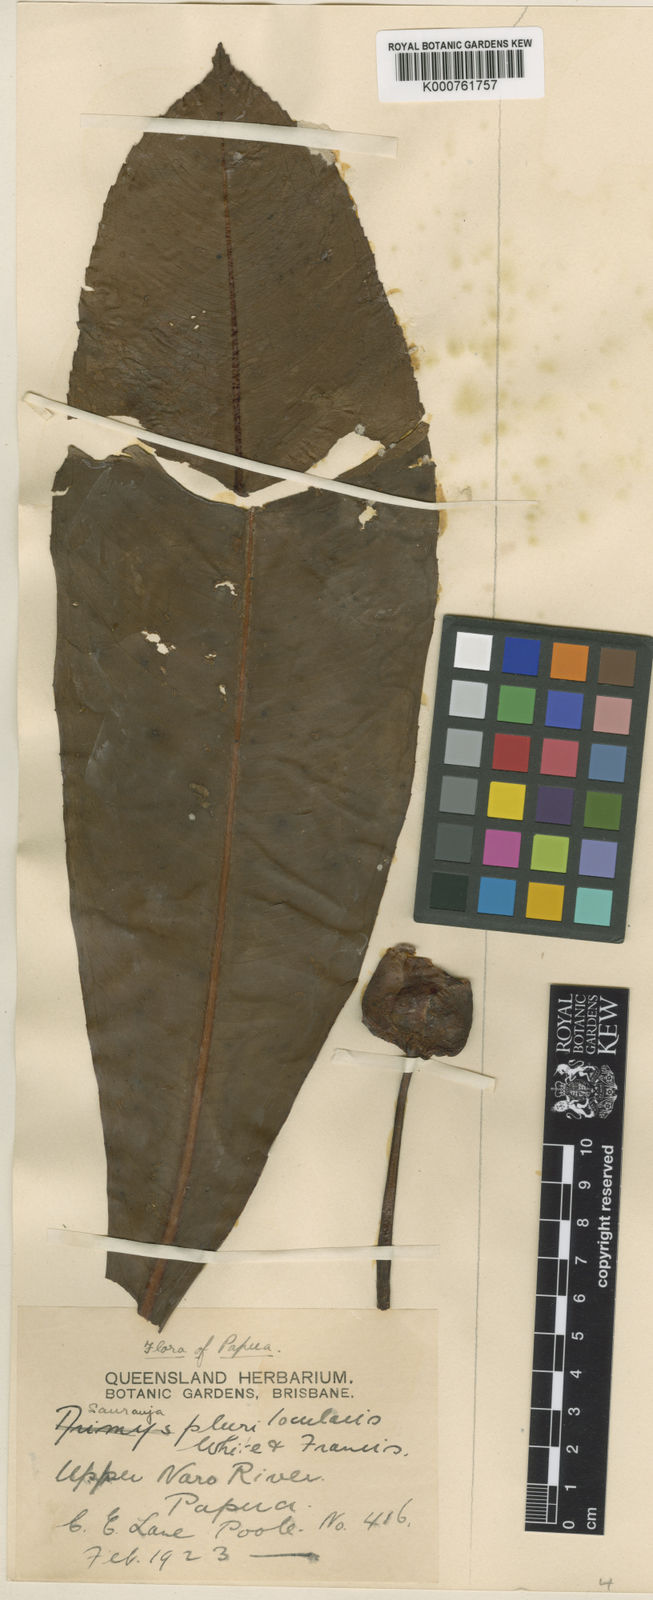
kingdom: Plantae
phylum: Tracheophyta
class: Magnoliopsida
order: Ericales
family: Actinidiaceae
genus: Saurauia
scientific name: Saurauia
